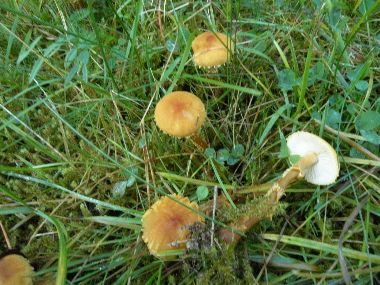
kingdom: Fungi
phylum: Basidiomycota
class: Agaricomycetes
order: Agaricales
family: Tricholomataceae
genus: Cystoderma
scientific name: Cystoderma amianthinum
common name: okkergul grynhat
